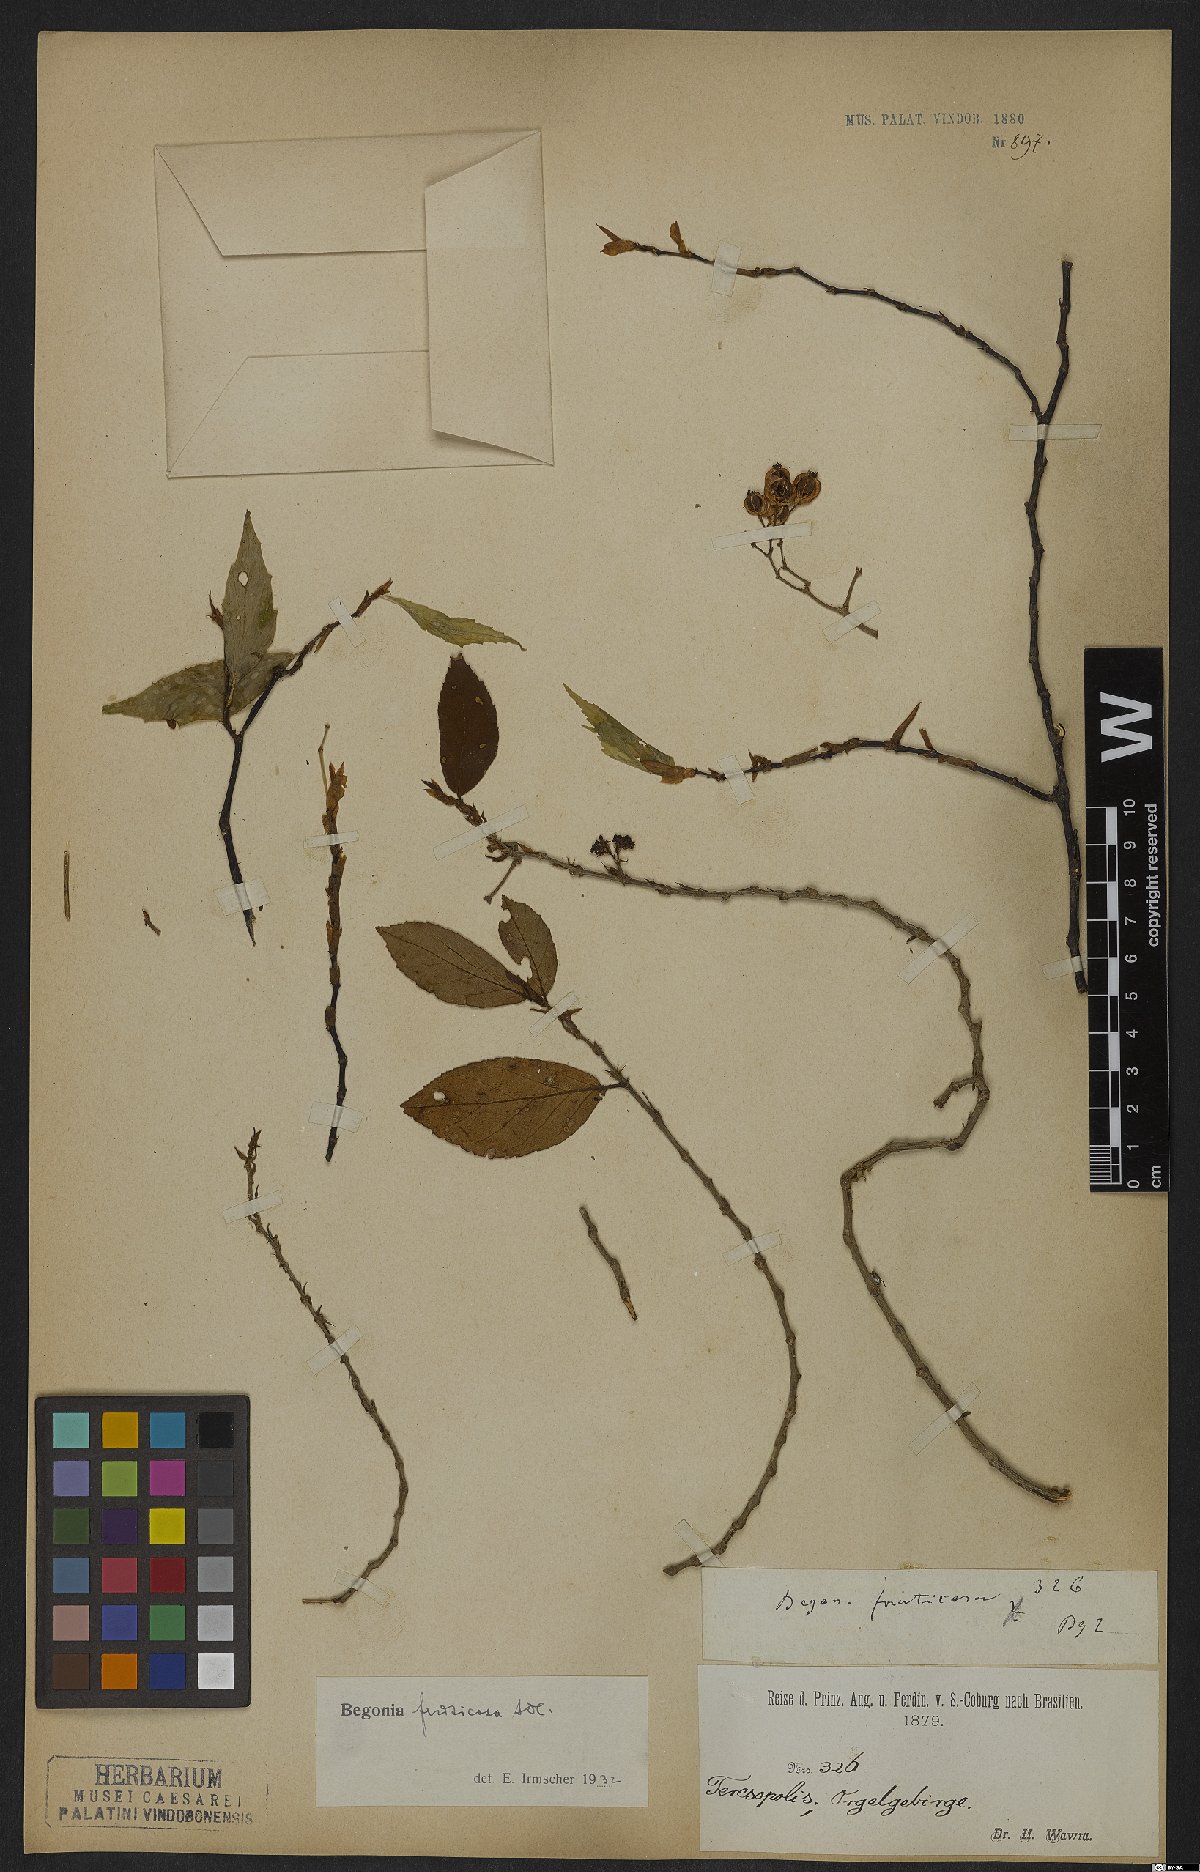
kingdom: Plantae
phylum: Tracheophyta
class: Magnoliopsida
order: Cucurbitales
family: Begoniaceae
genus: Begonia
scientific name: Begonia fruticosa
